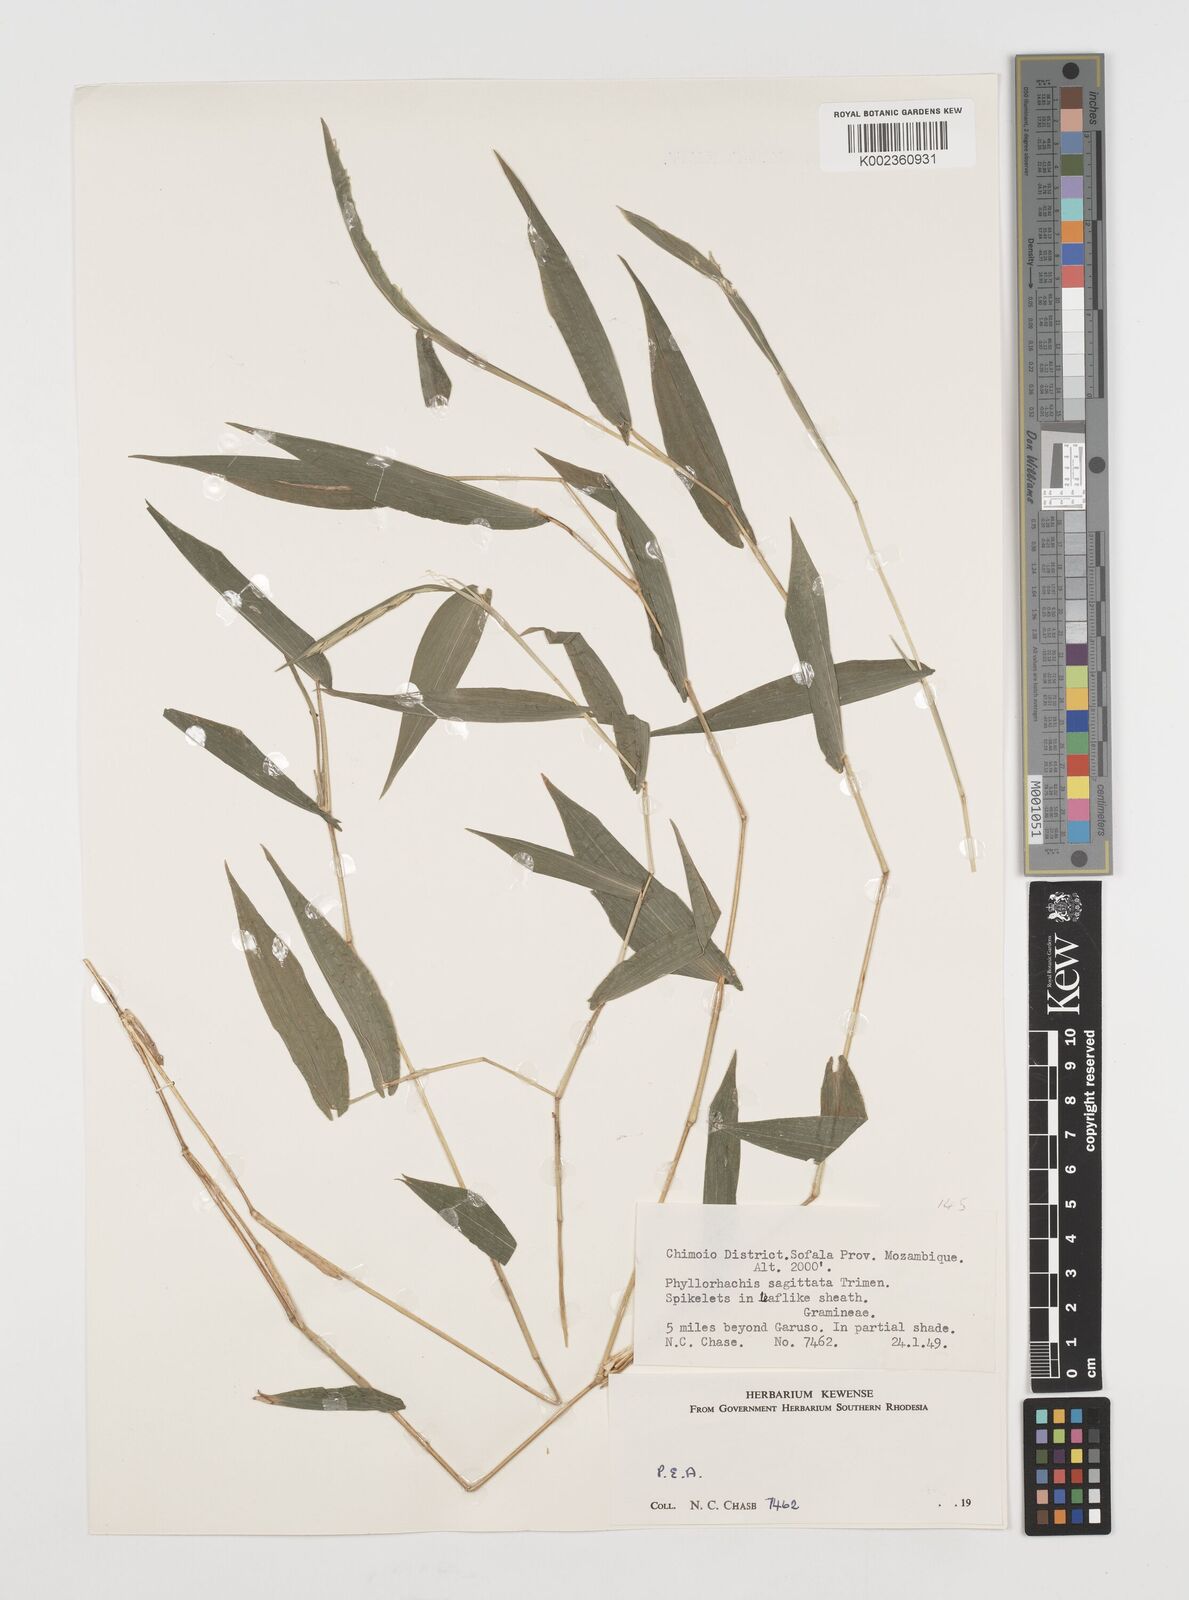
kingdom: Plantae
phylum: Tracheophyta
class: Liliopsida
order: Poales
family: Poaceae
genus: Phyllorachis
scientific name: Phyllorachis sagittata
